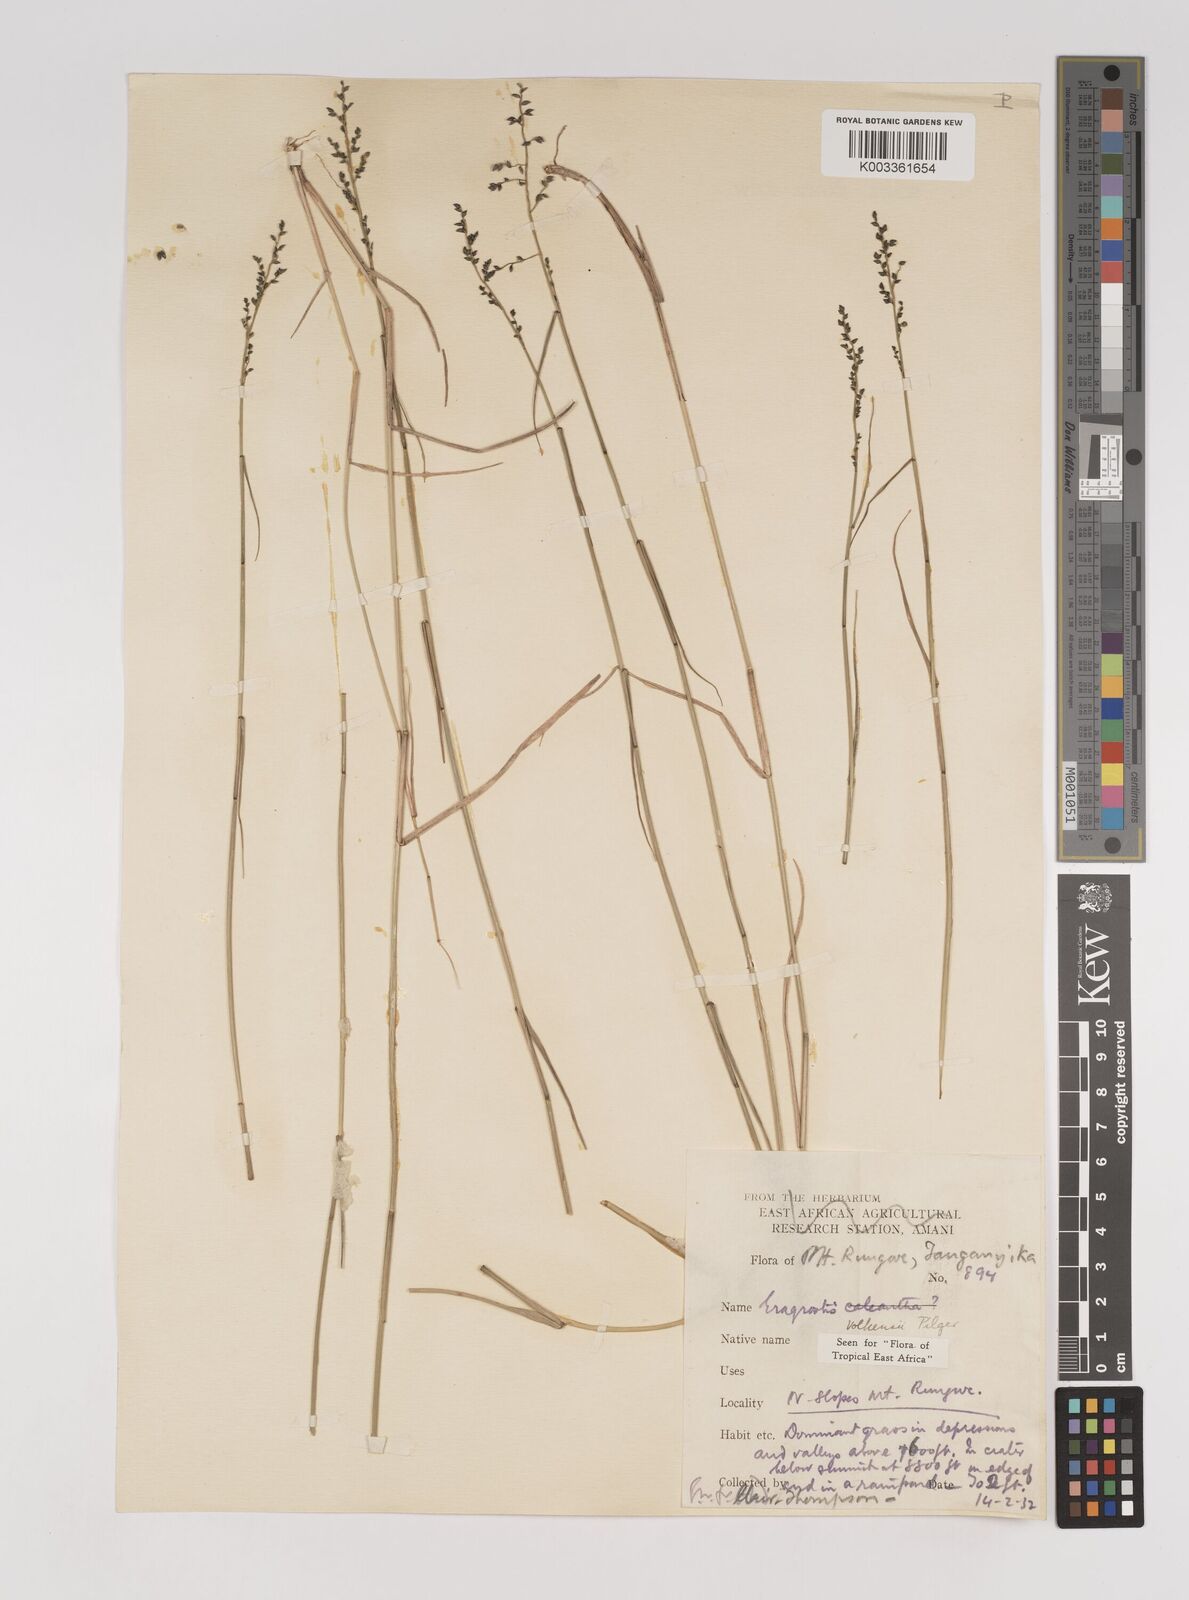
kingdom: Plantae
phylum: Tracheophyta
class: Liliopsida
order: Poales
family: Poaceae
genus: Eragrostis
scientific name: Eragrostis volkensii
